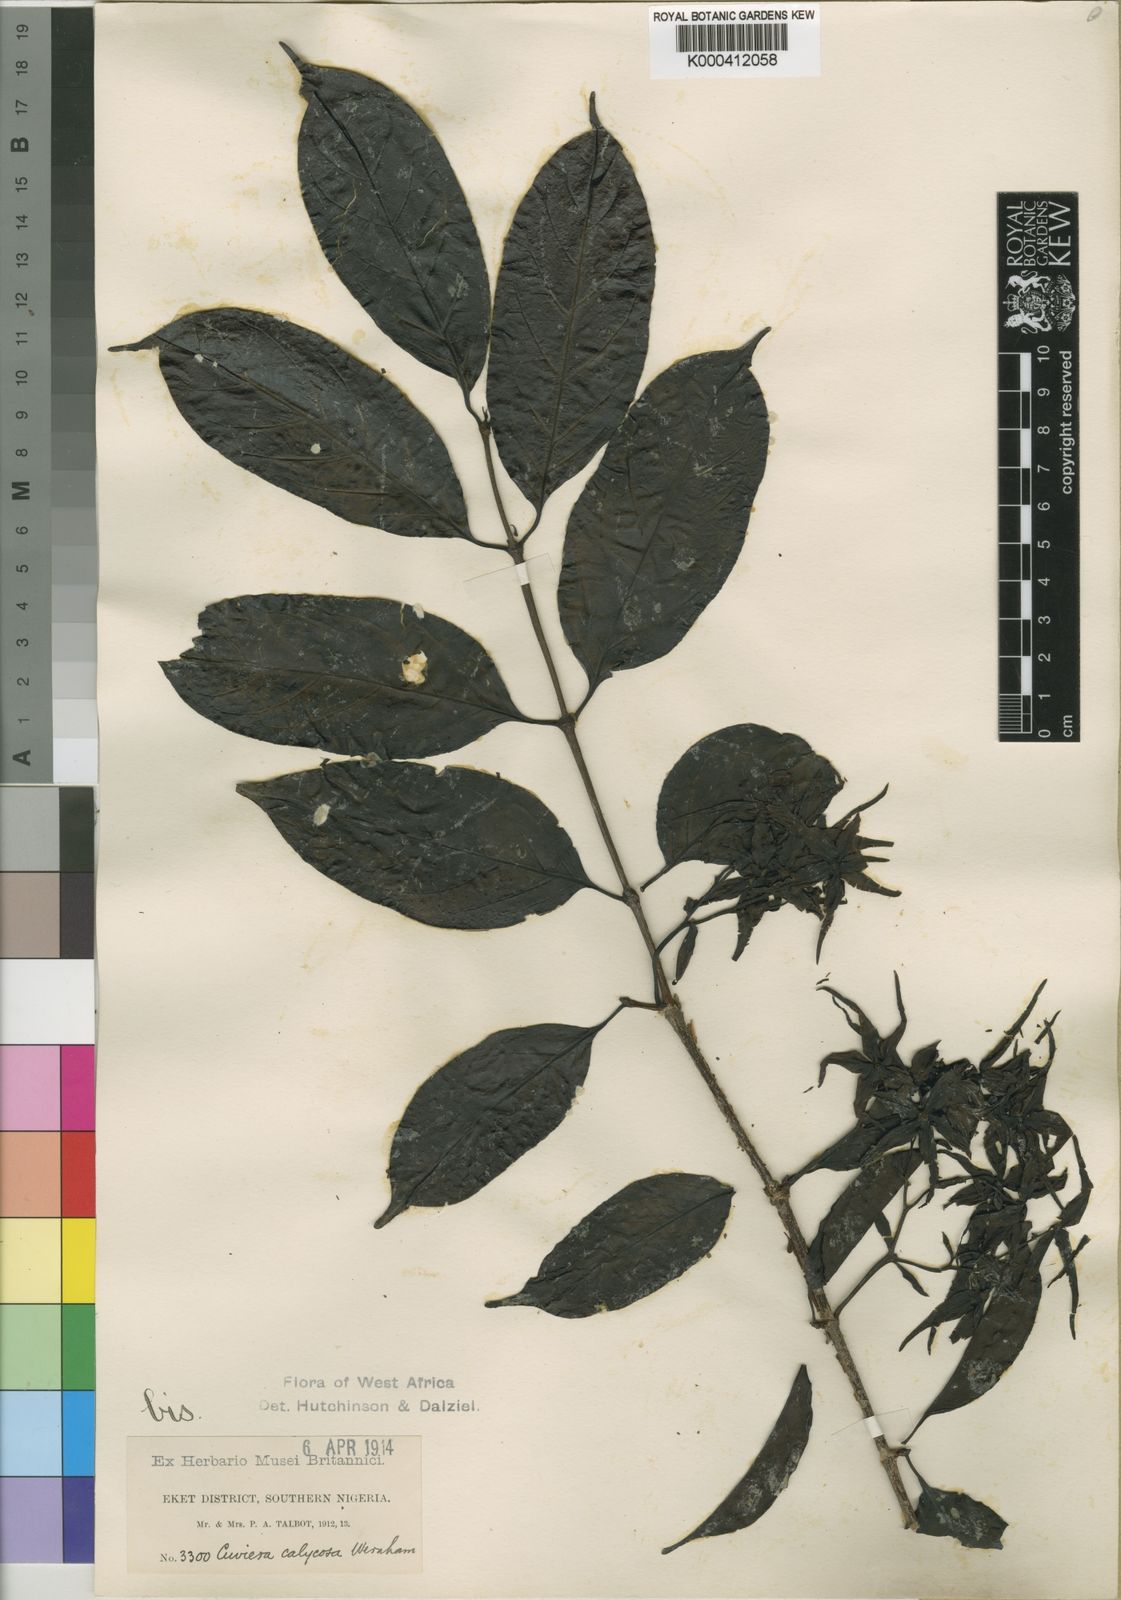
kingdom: Plantae
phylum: Tracheophyta
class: Magnoliopsida
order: Gentianales
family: Rubiaceae
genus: Cuviera
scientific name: Cuviera calycosa
